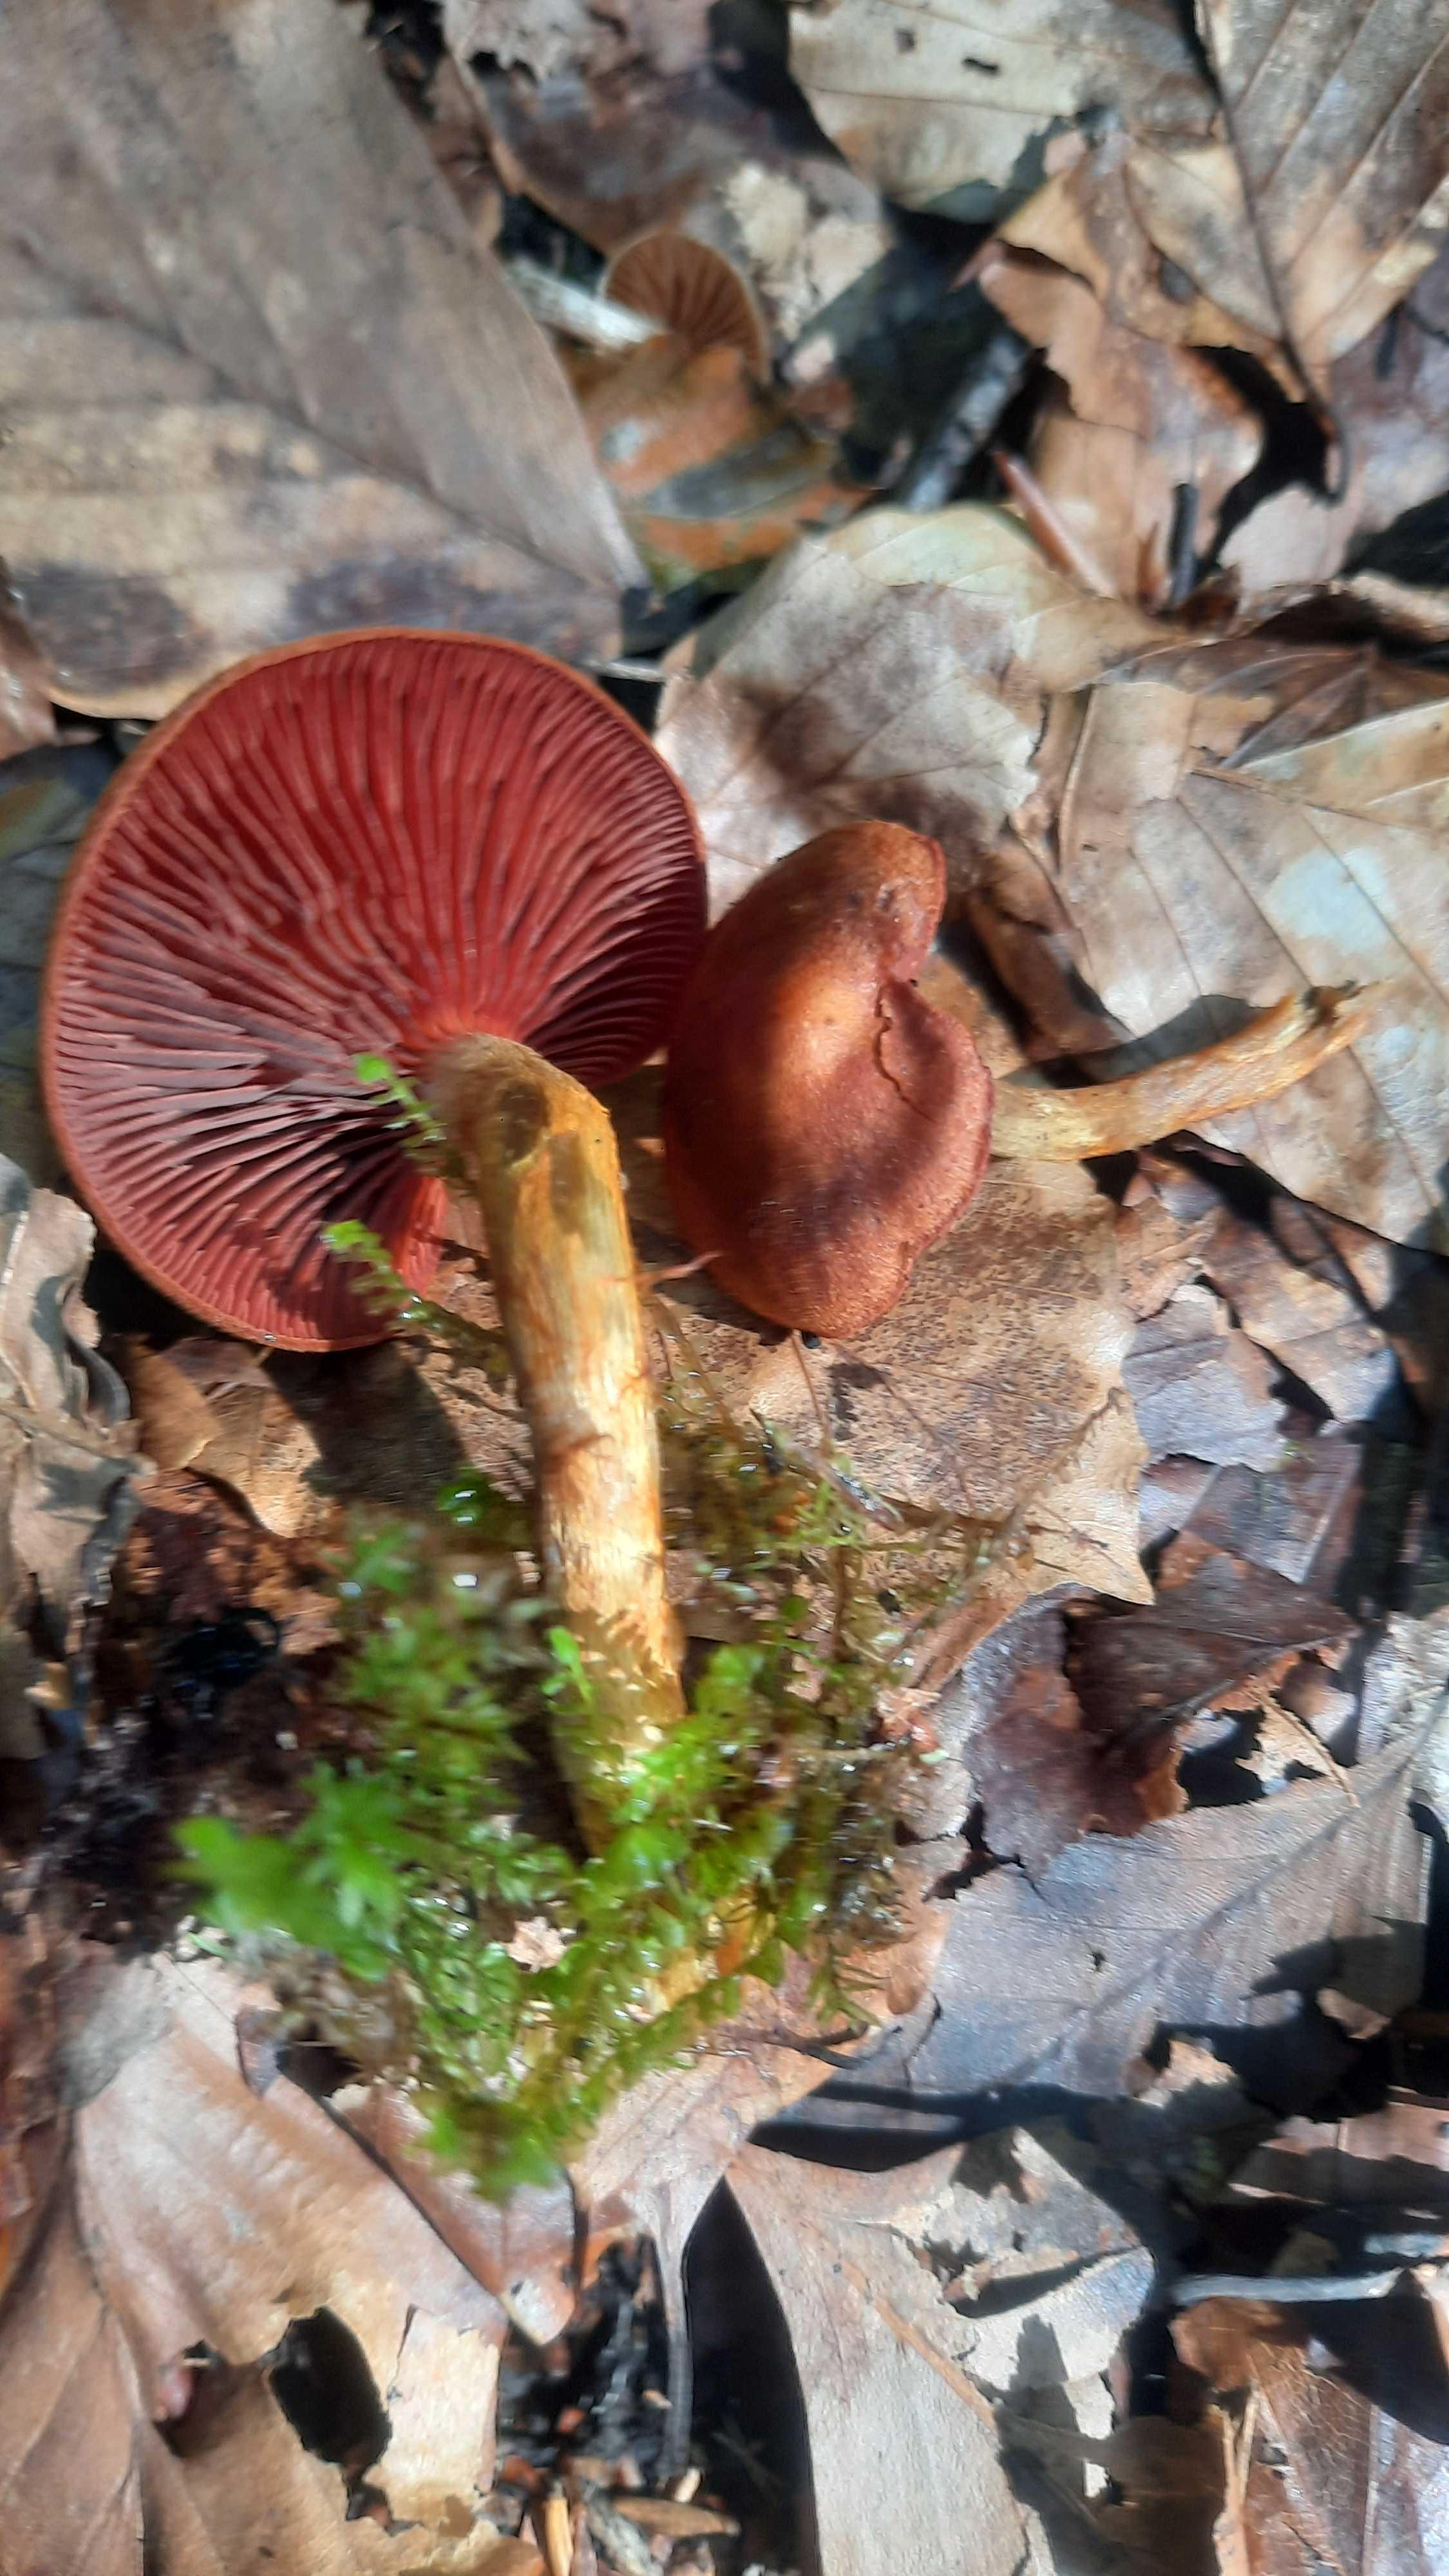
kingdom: Fungi
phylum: Basidiomycota
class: Agaricomycetes
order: Agaricales
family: Cortinariaceae
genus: Cortinarius
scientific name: Cortinarius
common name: cinnoberbladet slørhat
